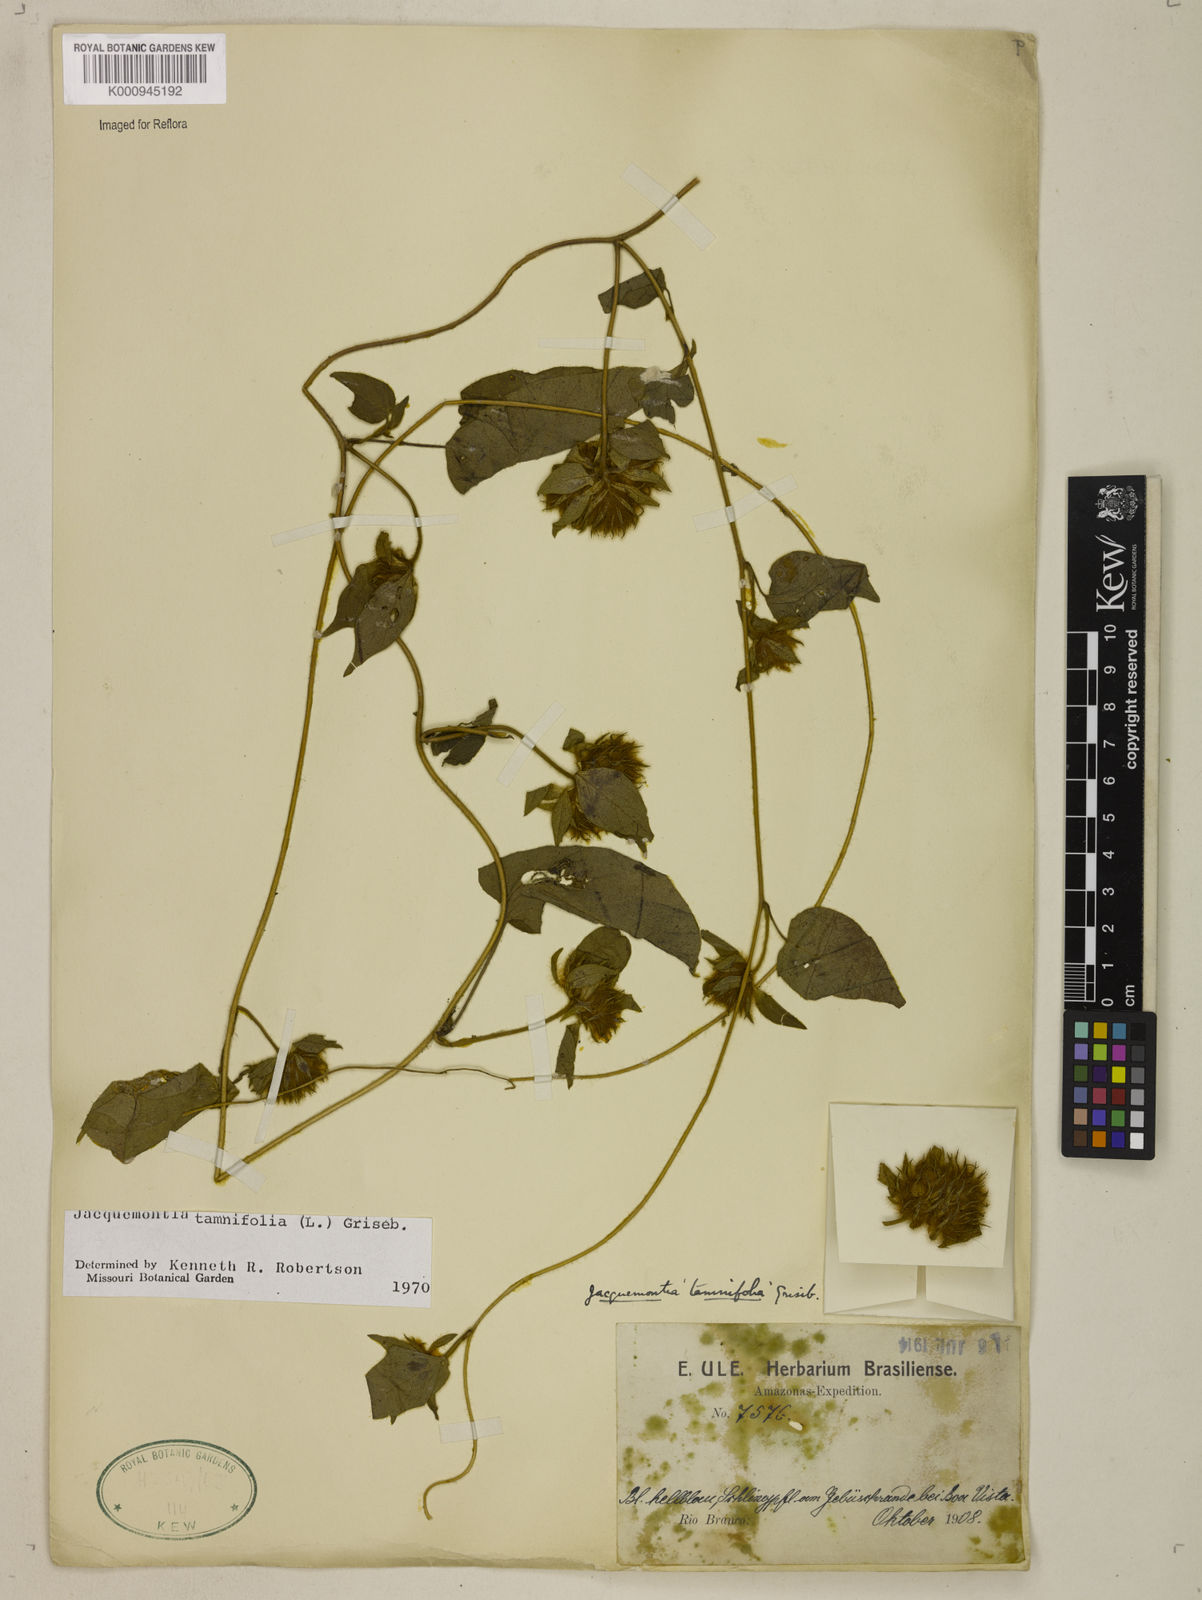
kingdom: Plantae
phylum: Tracheophyta
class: Magnoliopsida
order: Solanales
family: Convolvulaceae
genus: Jacquemontia
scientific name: Jacquemontia tamnifolia
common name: Hairy clustervine
